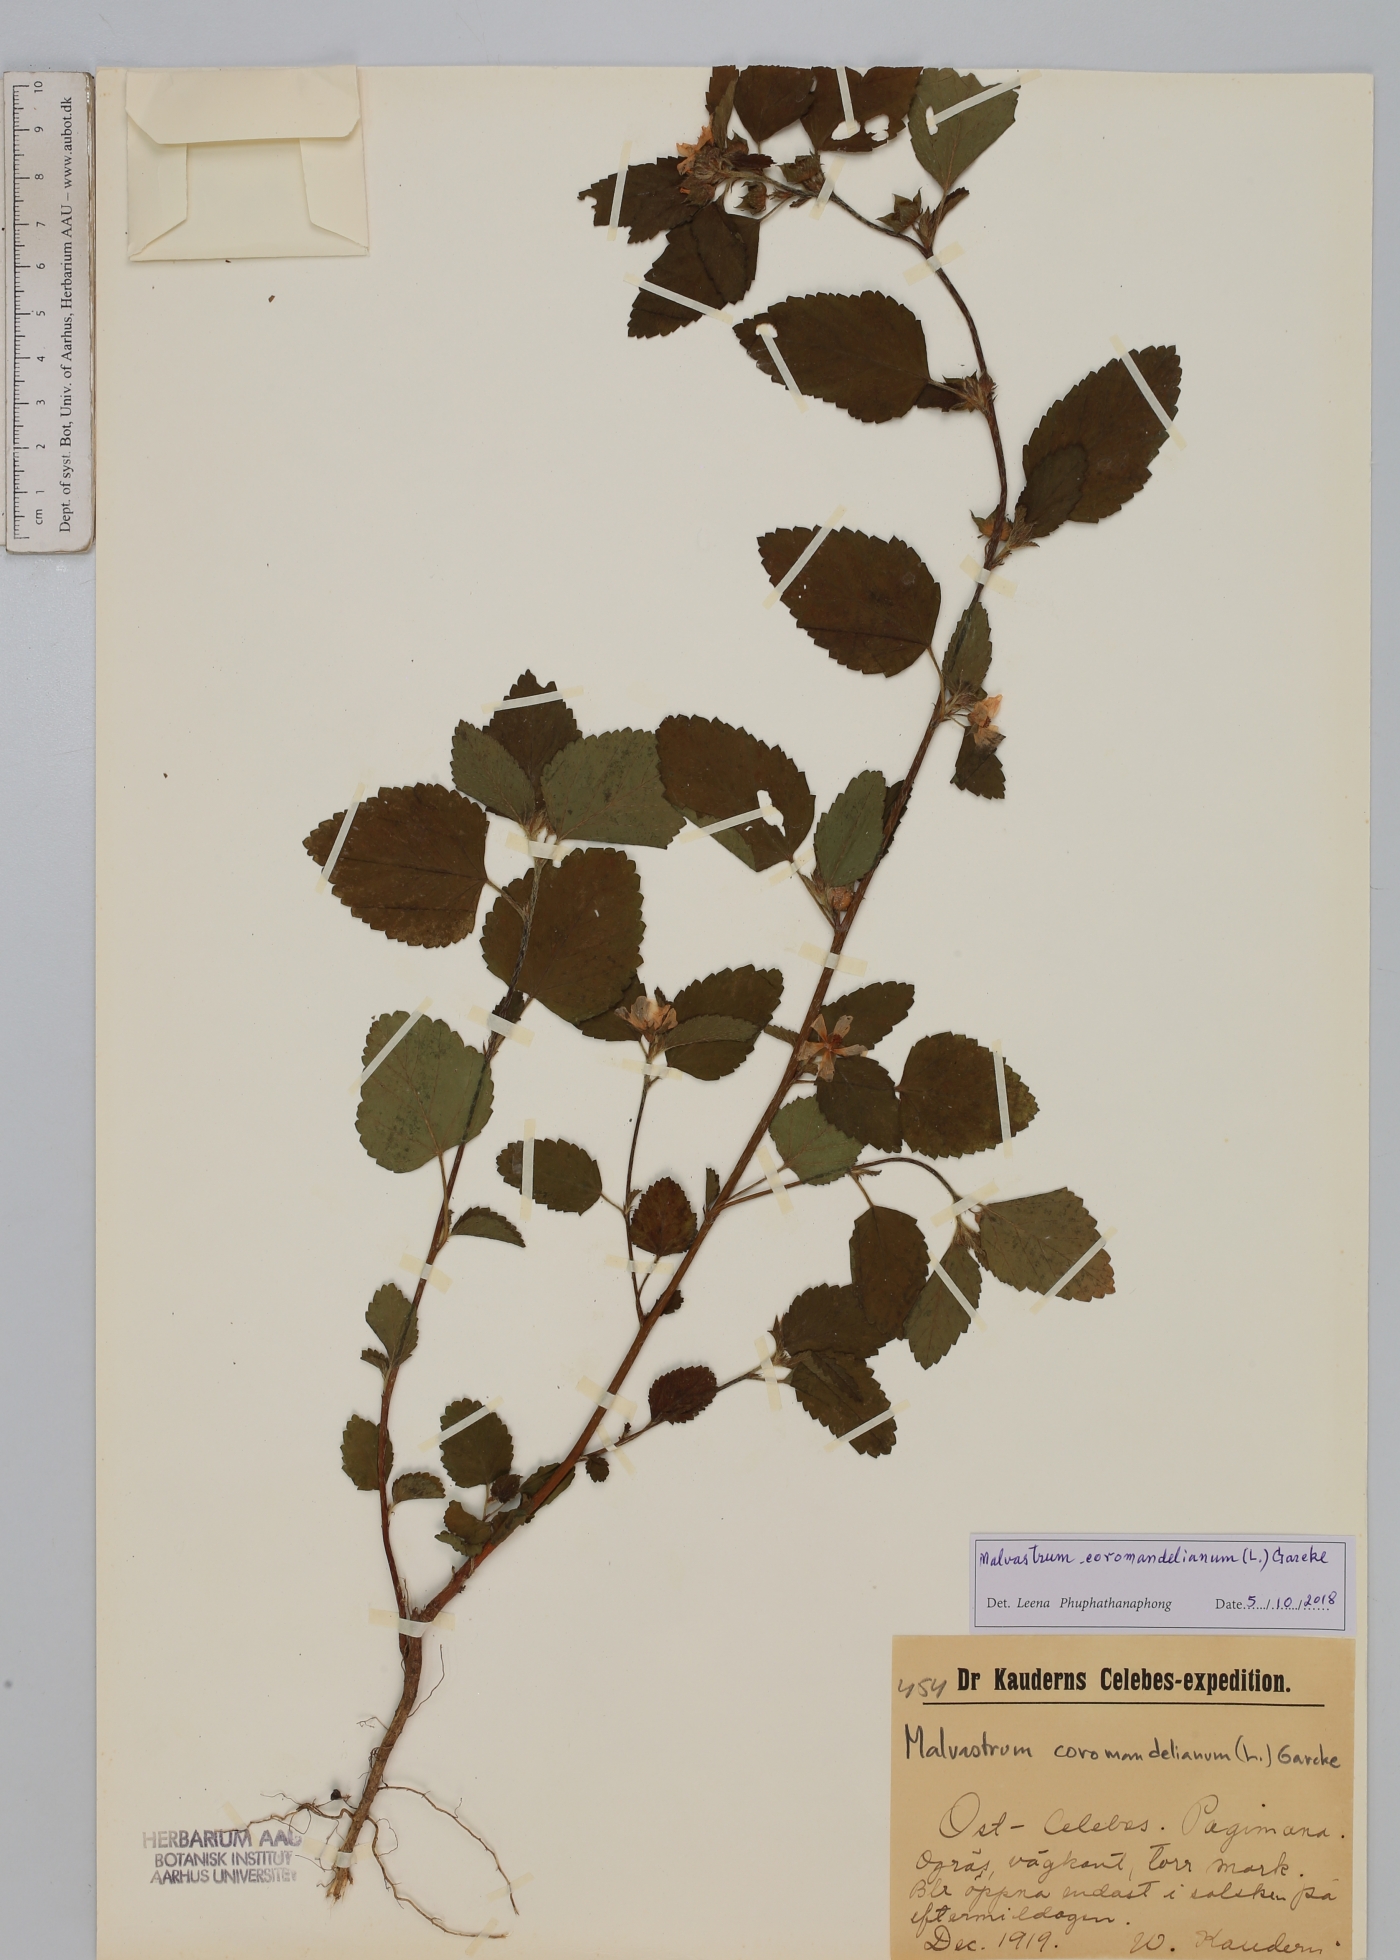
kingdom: Plantae
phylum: Tracheophyta
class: Magnoliopsida
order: Malvales
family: Malvaceae
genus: Malvastrum
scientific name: Malvastrum coromandelianum
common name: Threelobe false mallow
